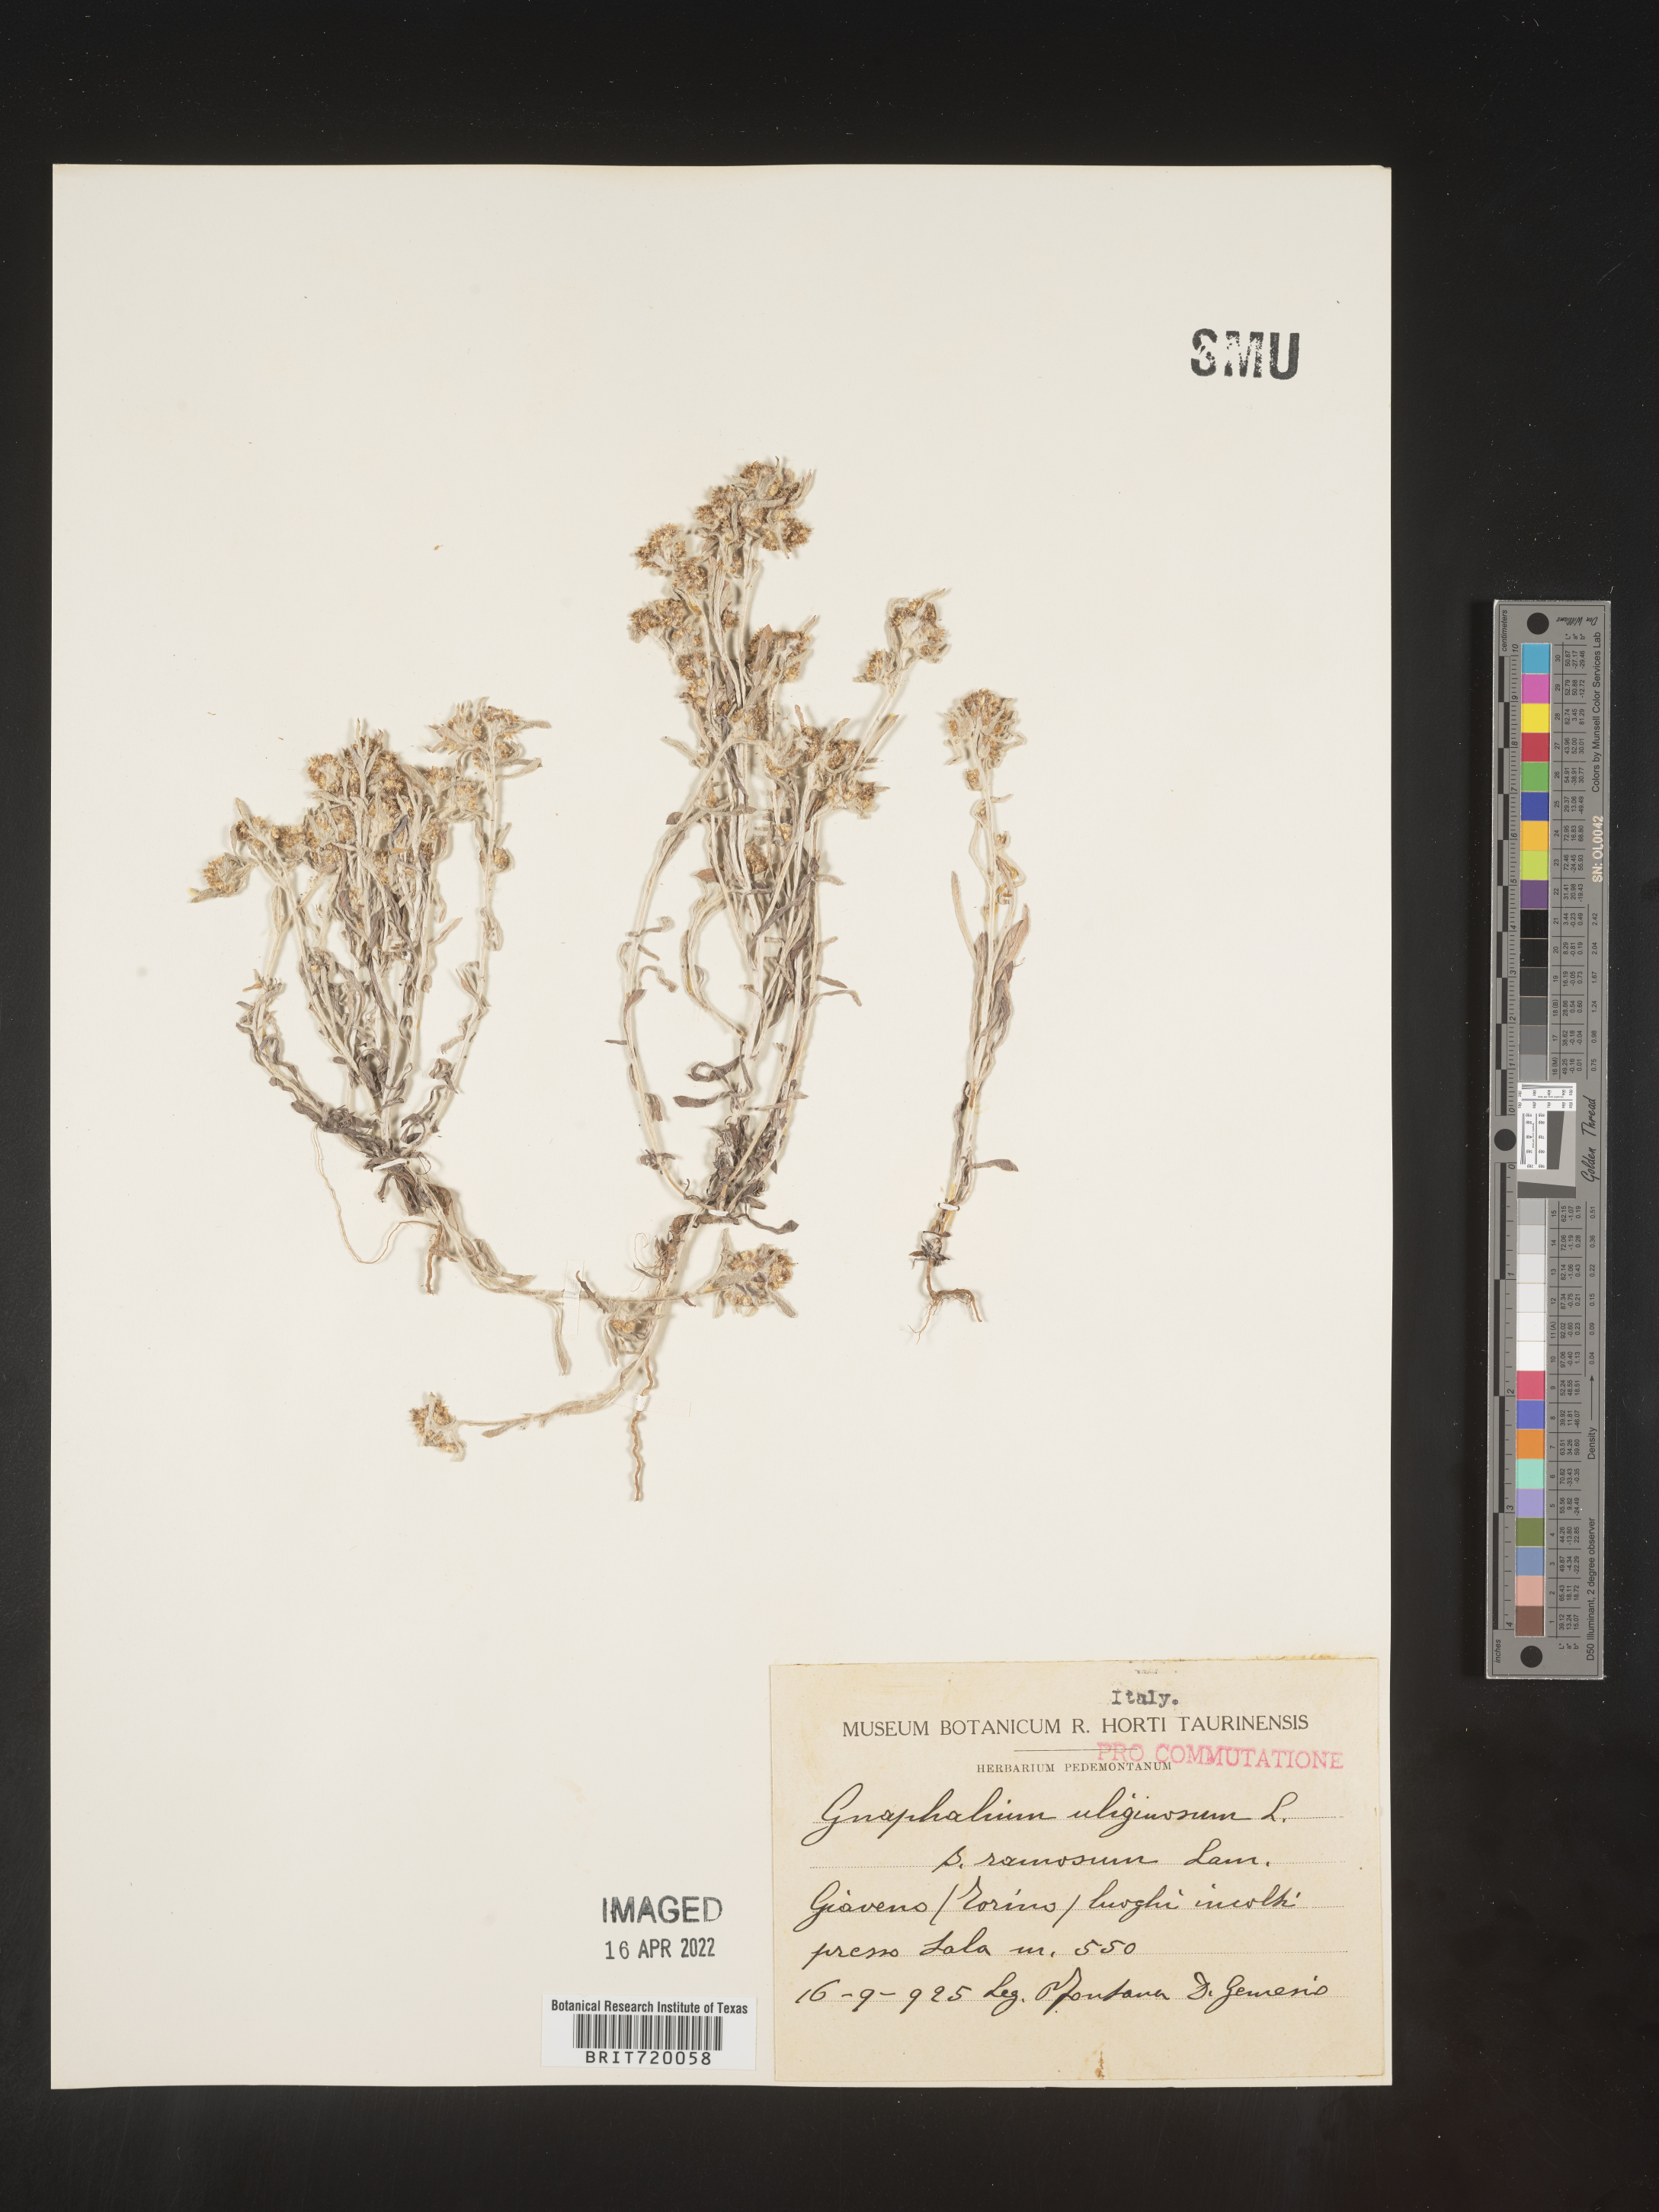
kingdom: Plantae
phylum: Tracheophyta
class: Magnoliopsida
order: Asterales
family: Asteraceae
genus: Gnaphalium
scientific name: Gnaphalium
